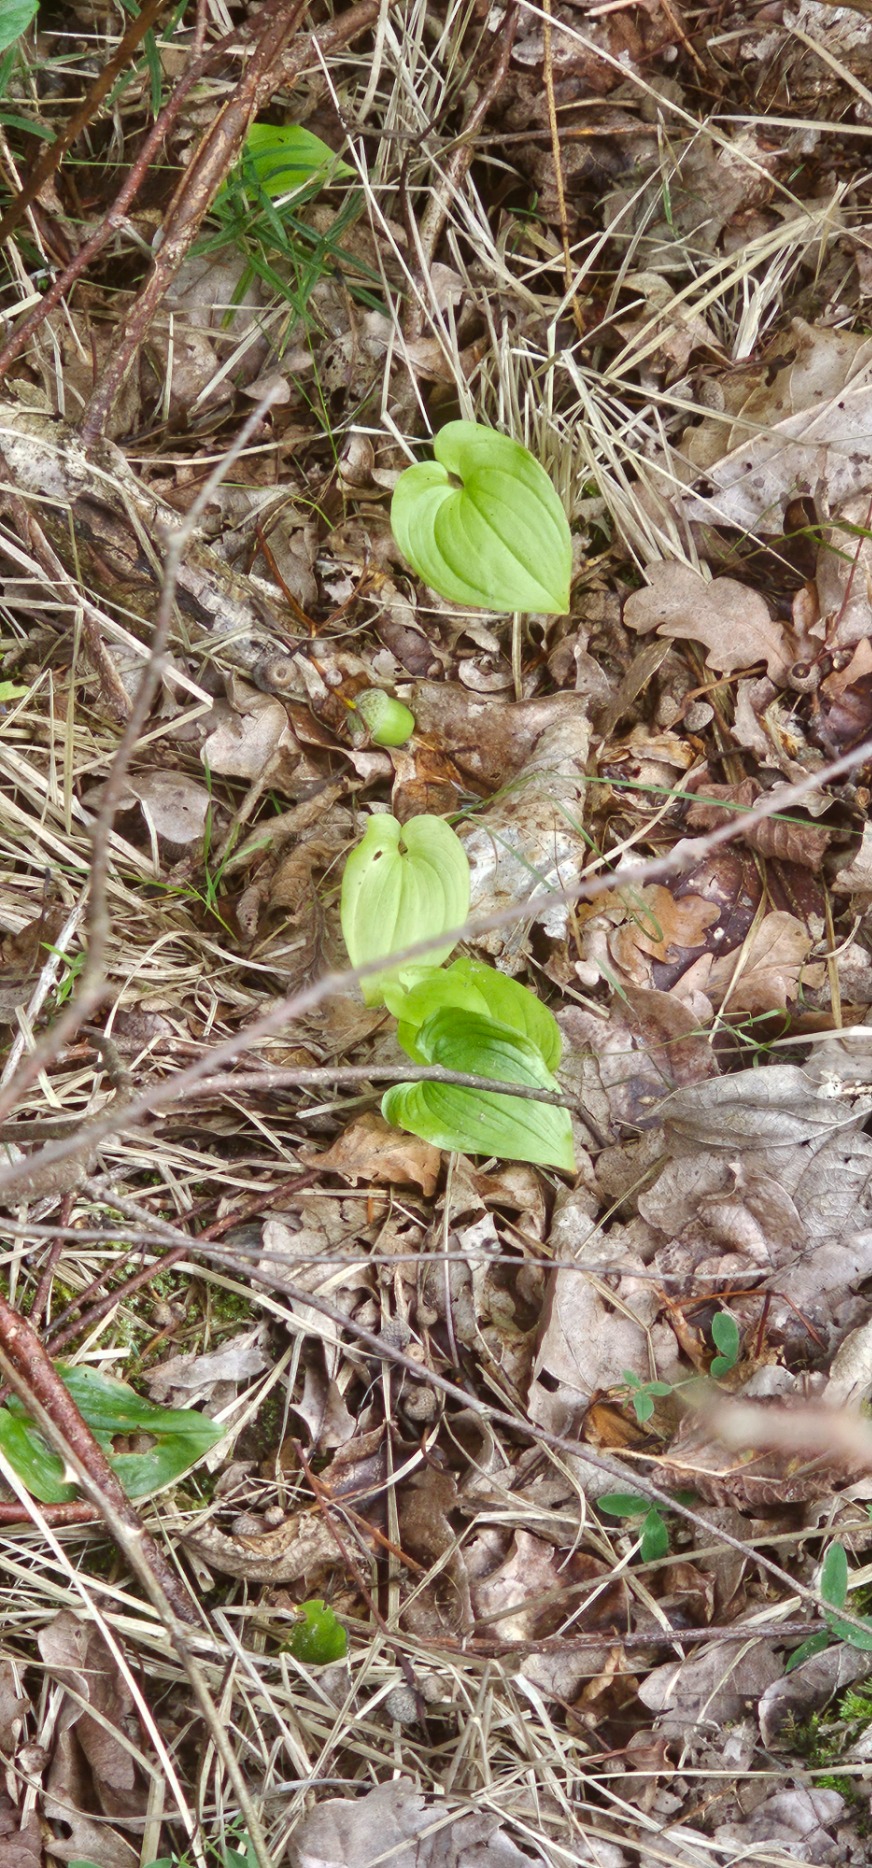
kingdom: Plantae
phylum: Tracheophyta
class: Liliopsida
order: Asparagales
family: Asparagaceae
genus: Maianthemum
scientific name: Maianthemum bifolium
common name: Majblomst
